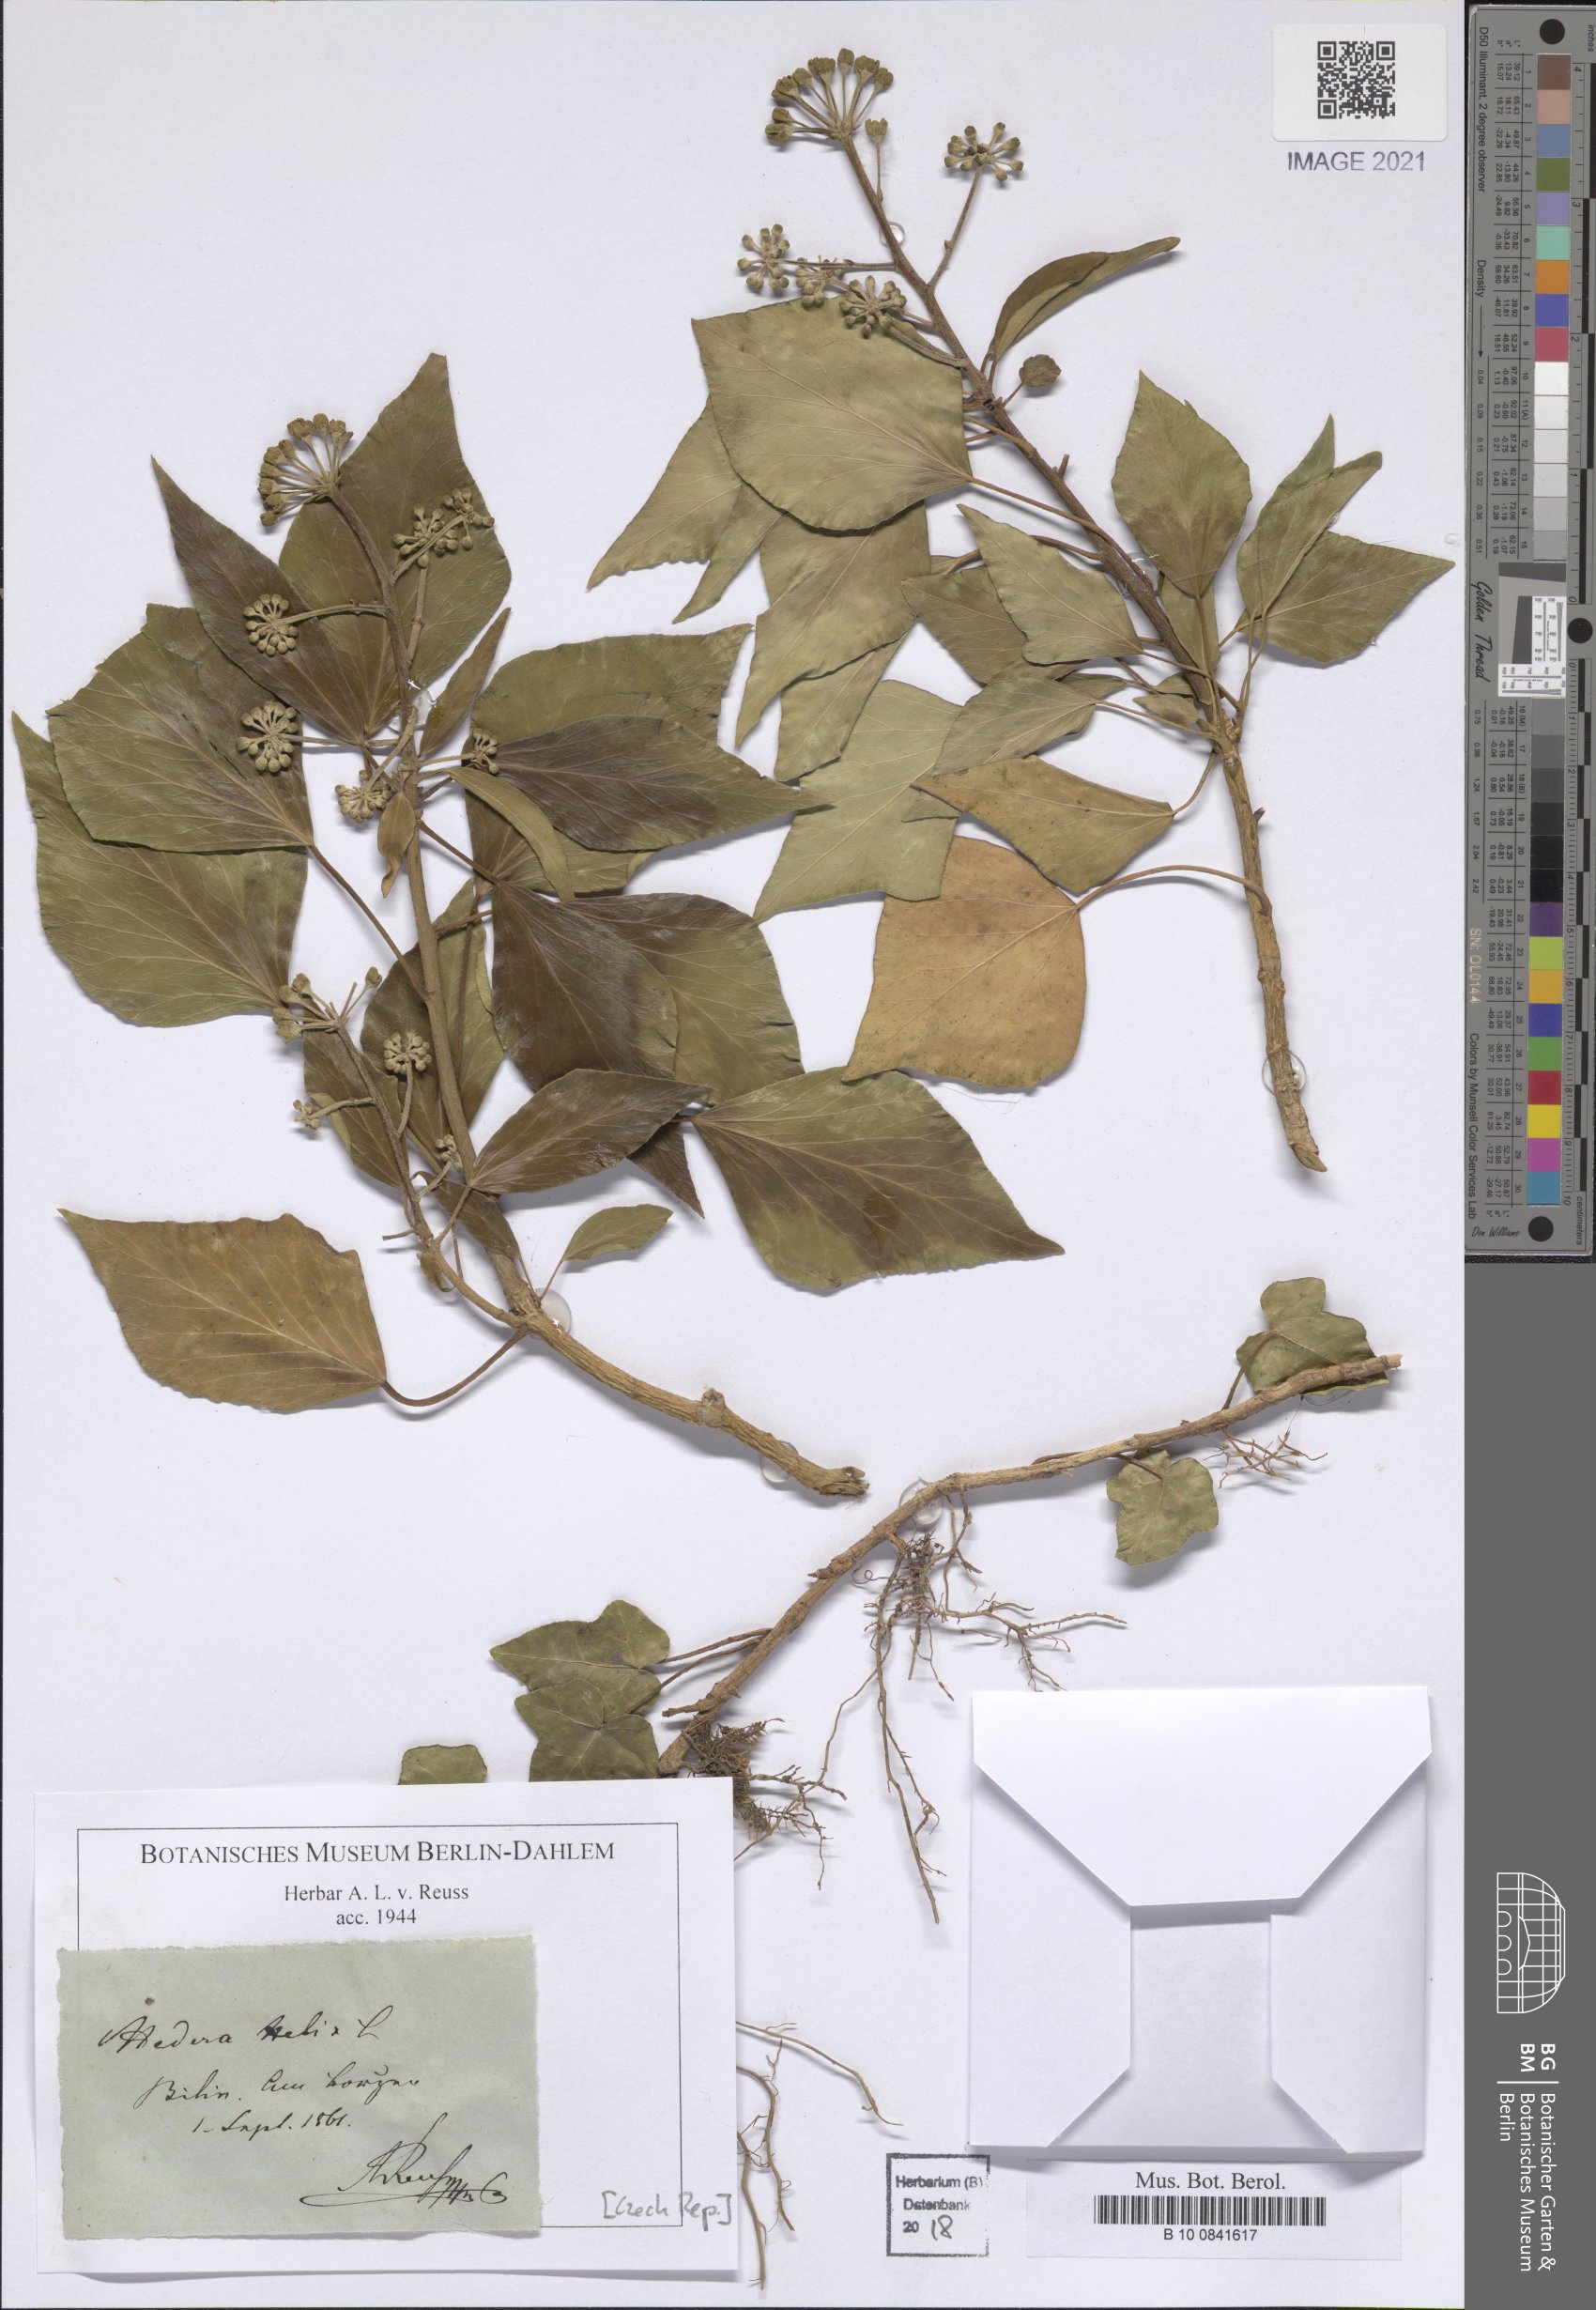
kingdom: Plantae
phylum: Tracheophyta
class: Magnoliopsida
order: Apiales
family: Araliaceae
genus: Hedera
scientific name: Hedera helix
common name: Ivy
